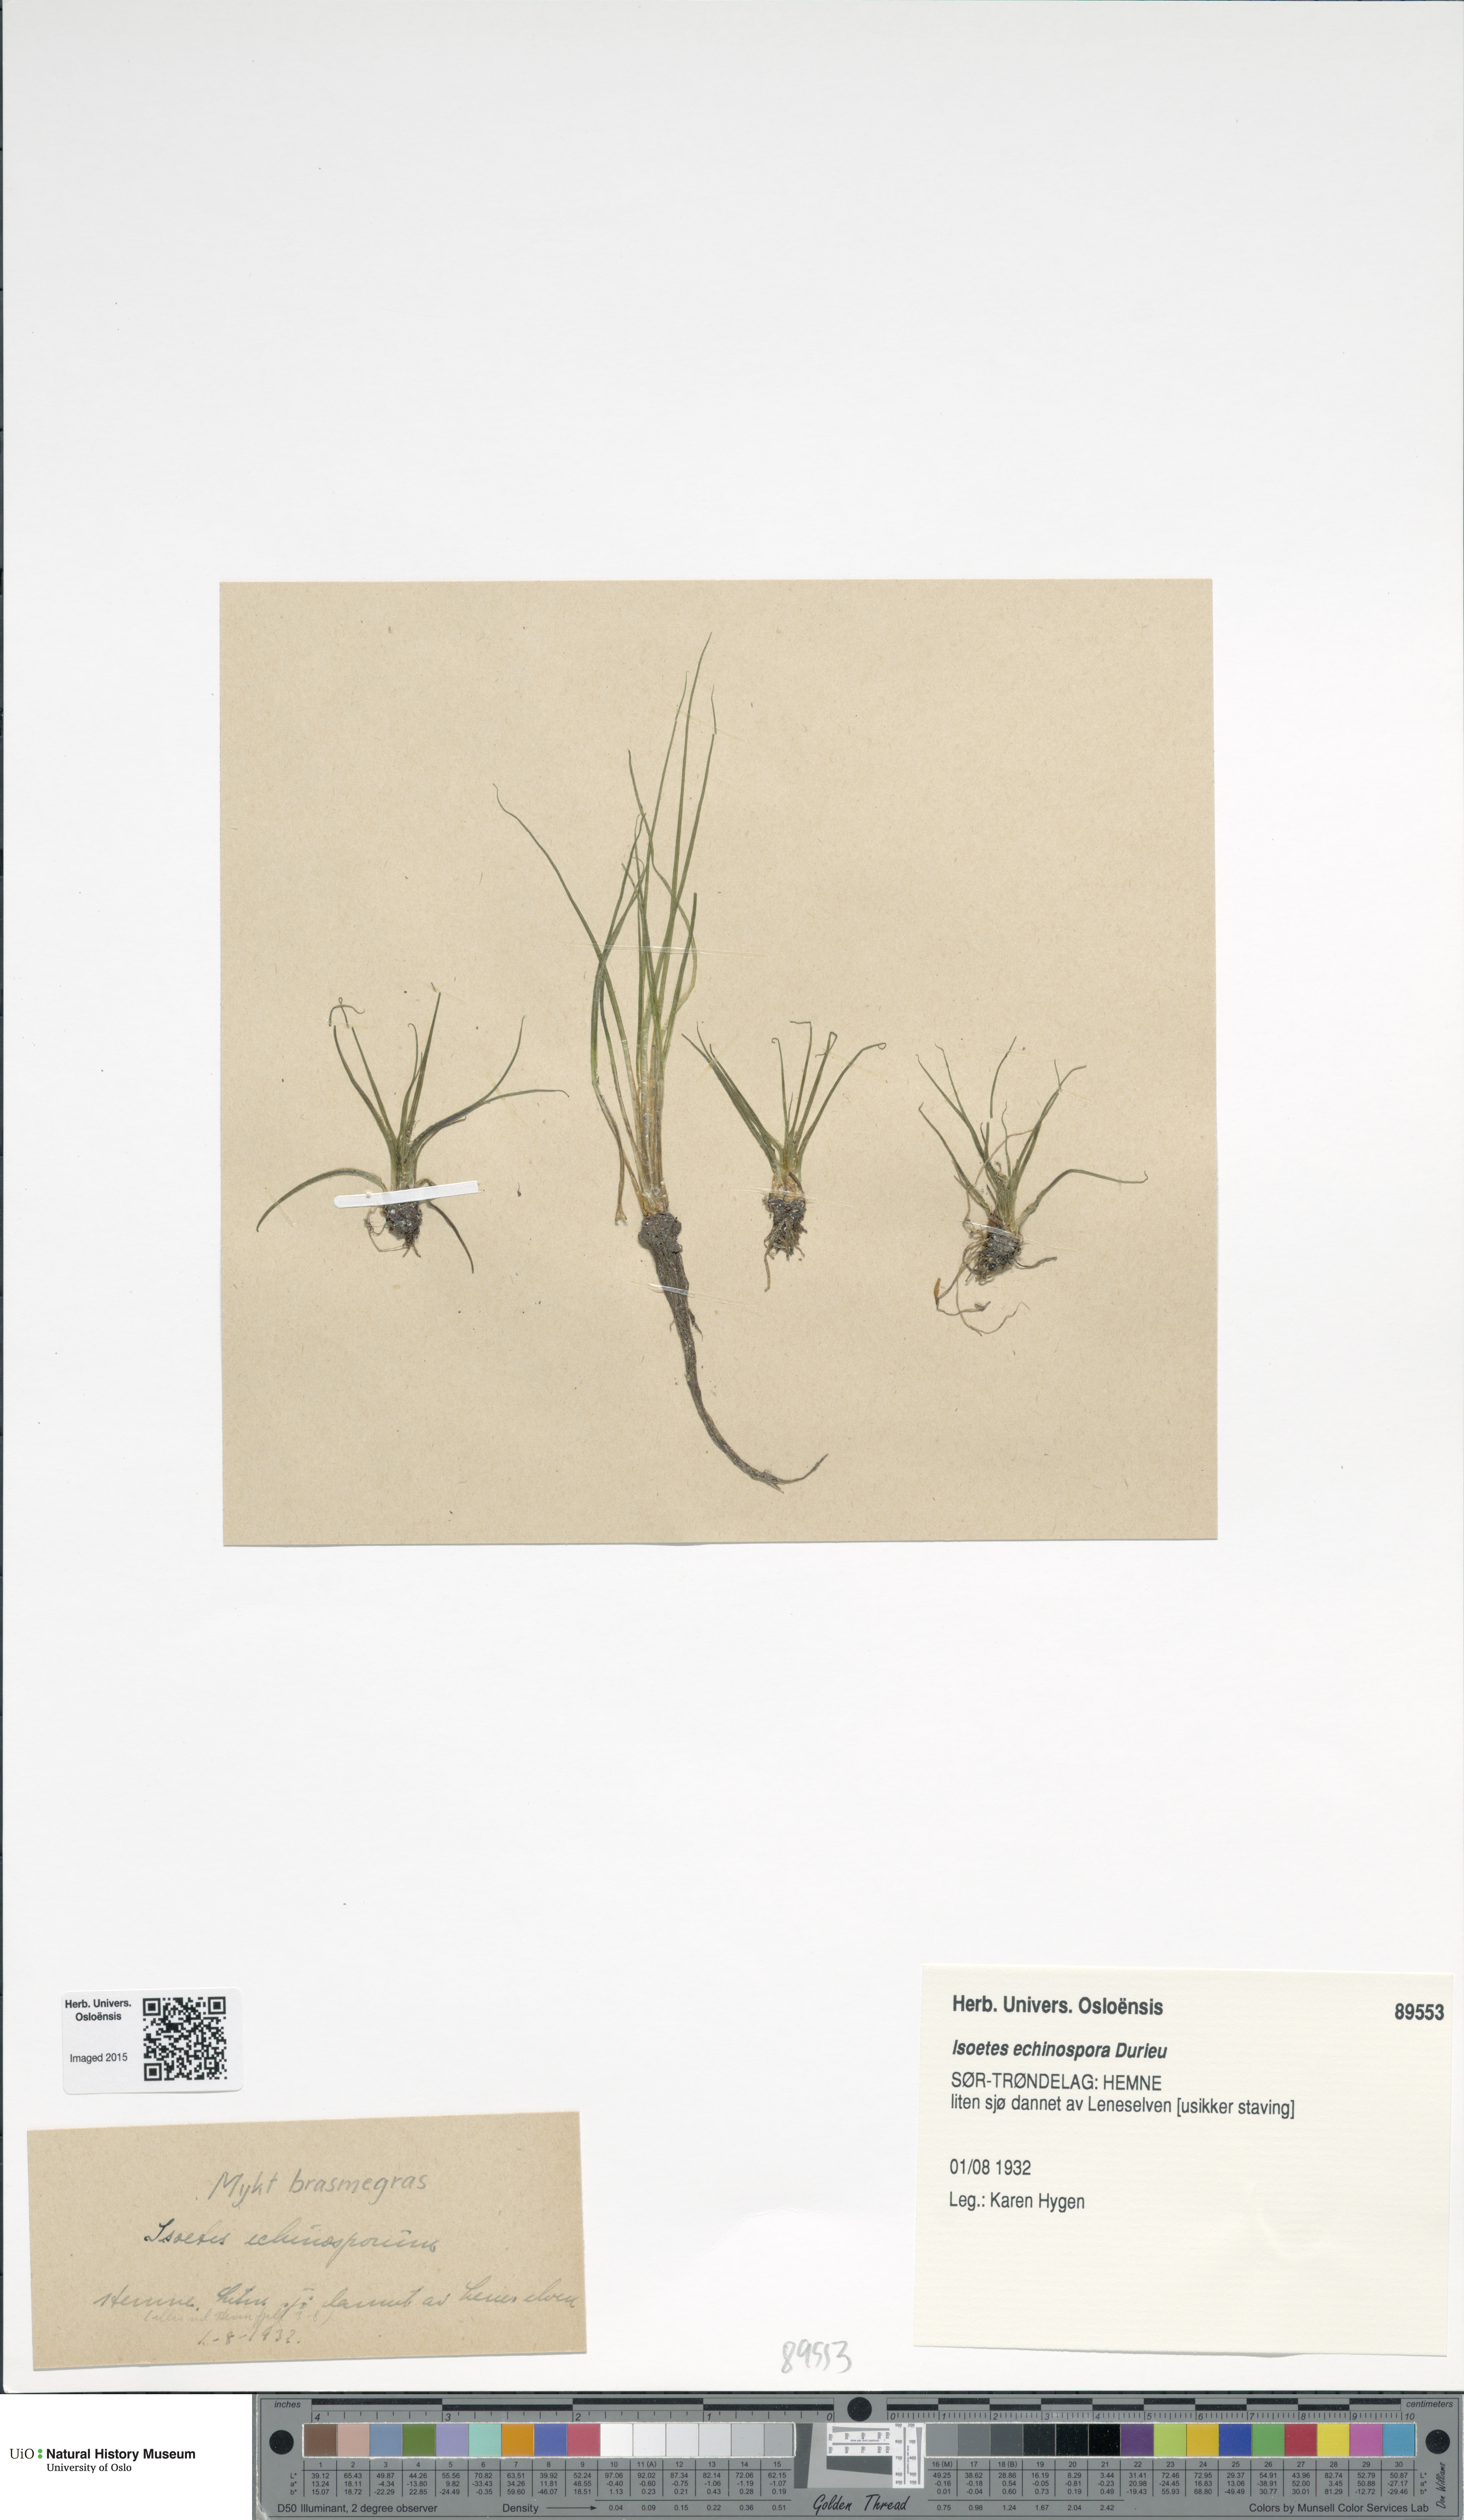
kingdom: Plantae
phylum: Tracheophyta
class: Lycopodiopsida
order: Isoetales
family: Isoetaceae
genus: Isoetes
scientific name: Isoetes echinospora
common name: Spring quillwort
